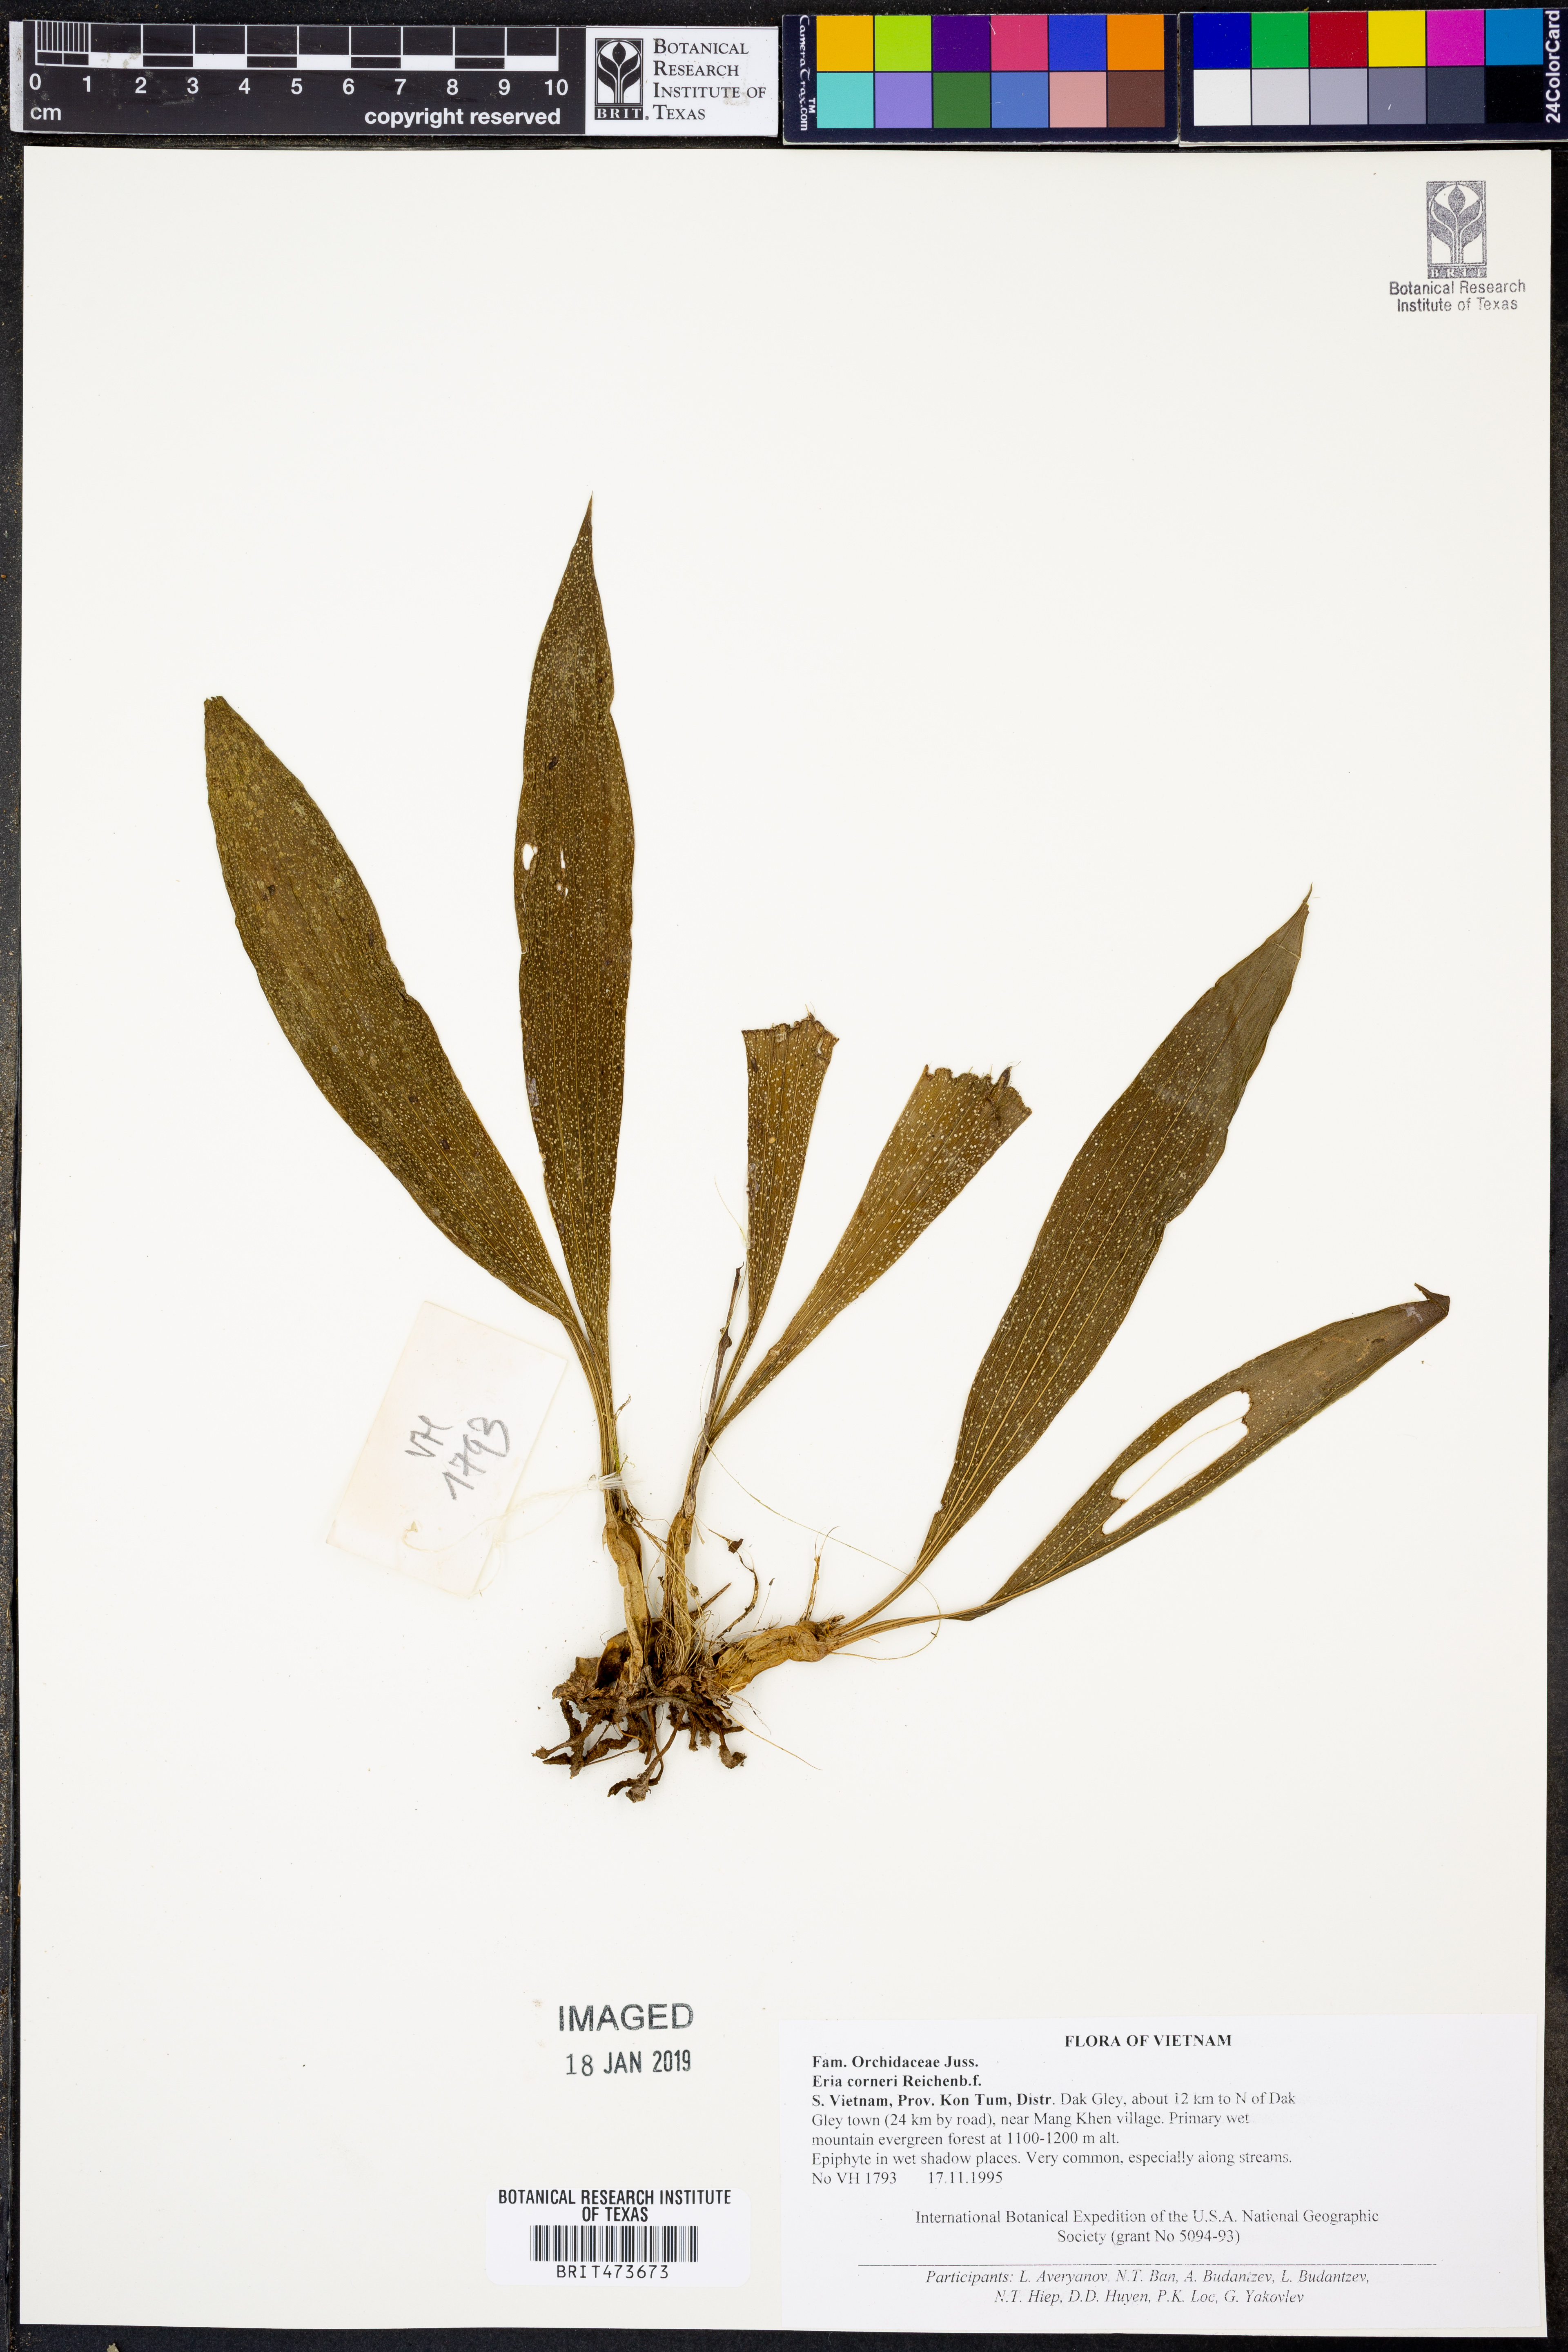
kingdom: Plantae
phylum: Tracheophyta
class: Liliopsida
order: Asparagales
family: Orchidaceae
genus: Eria
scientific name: Eria scabrilinguis
